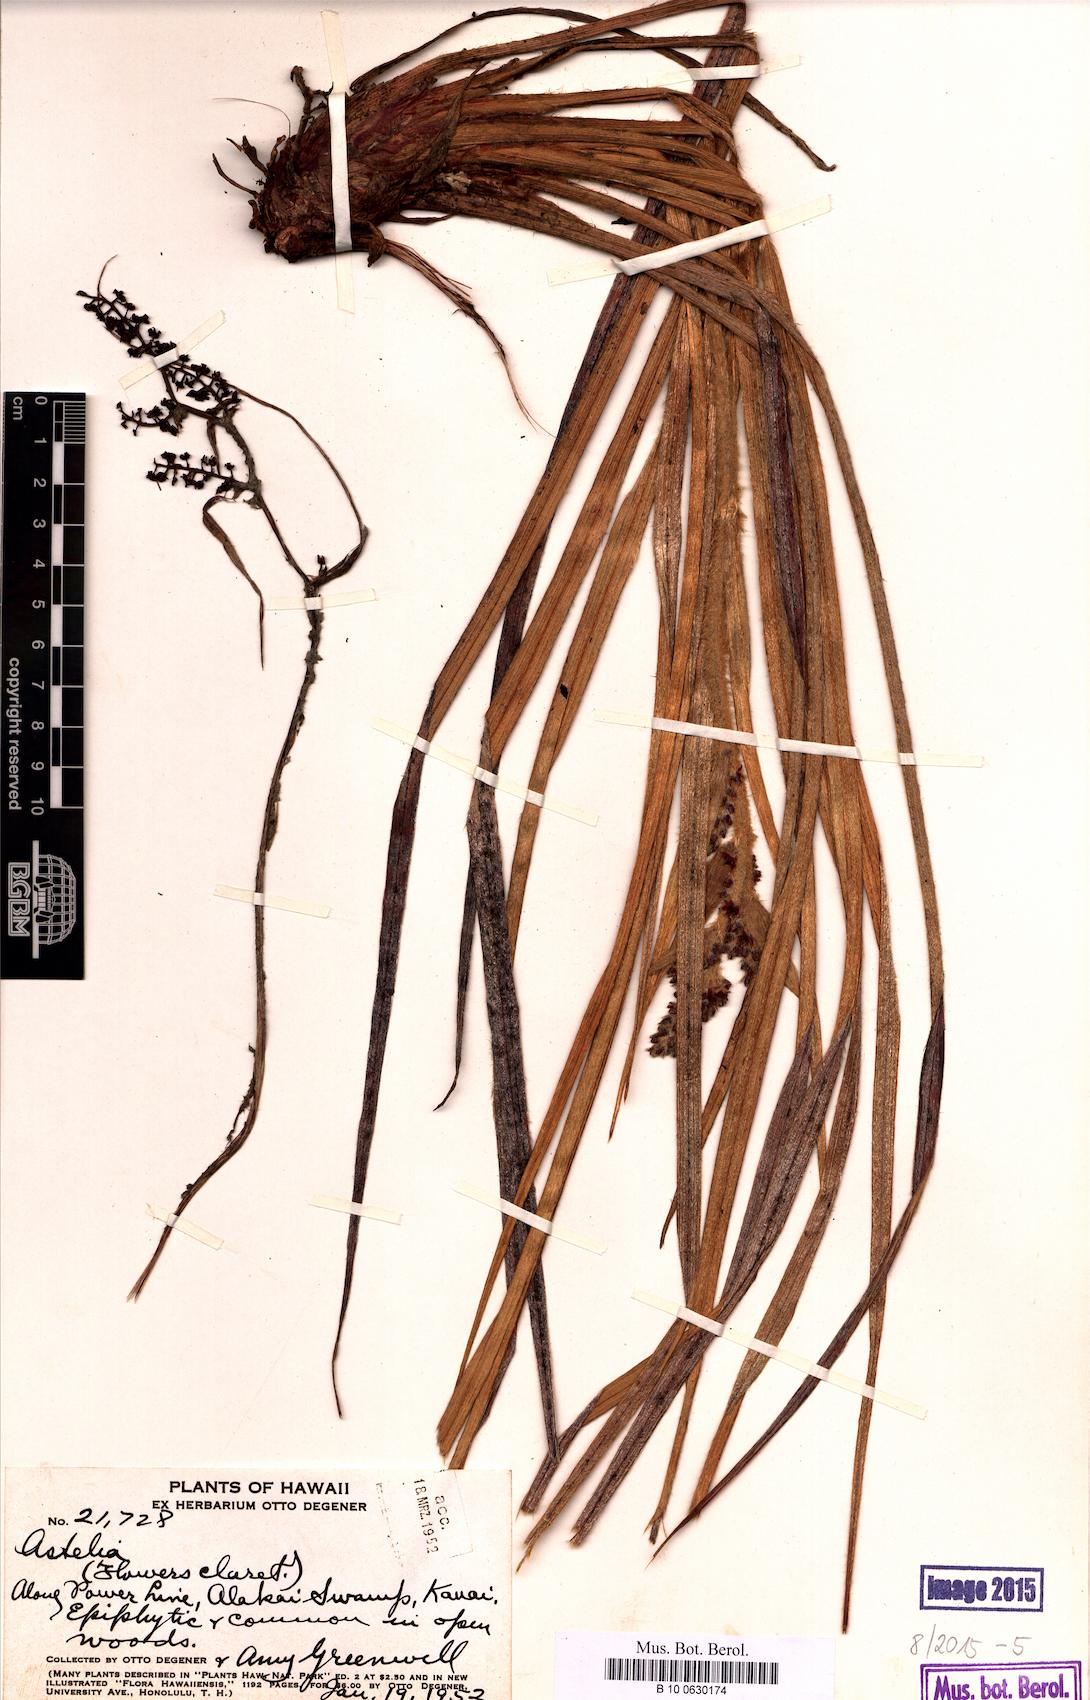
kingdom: Plantae
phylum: Tracheophyta
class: Liliopsida
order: Asparagales
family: Asteliaceae
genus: Astelia
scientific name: Astelia
